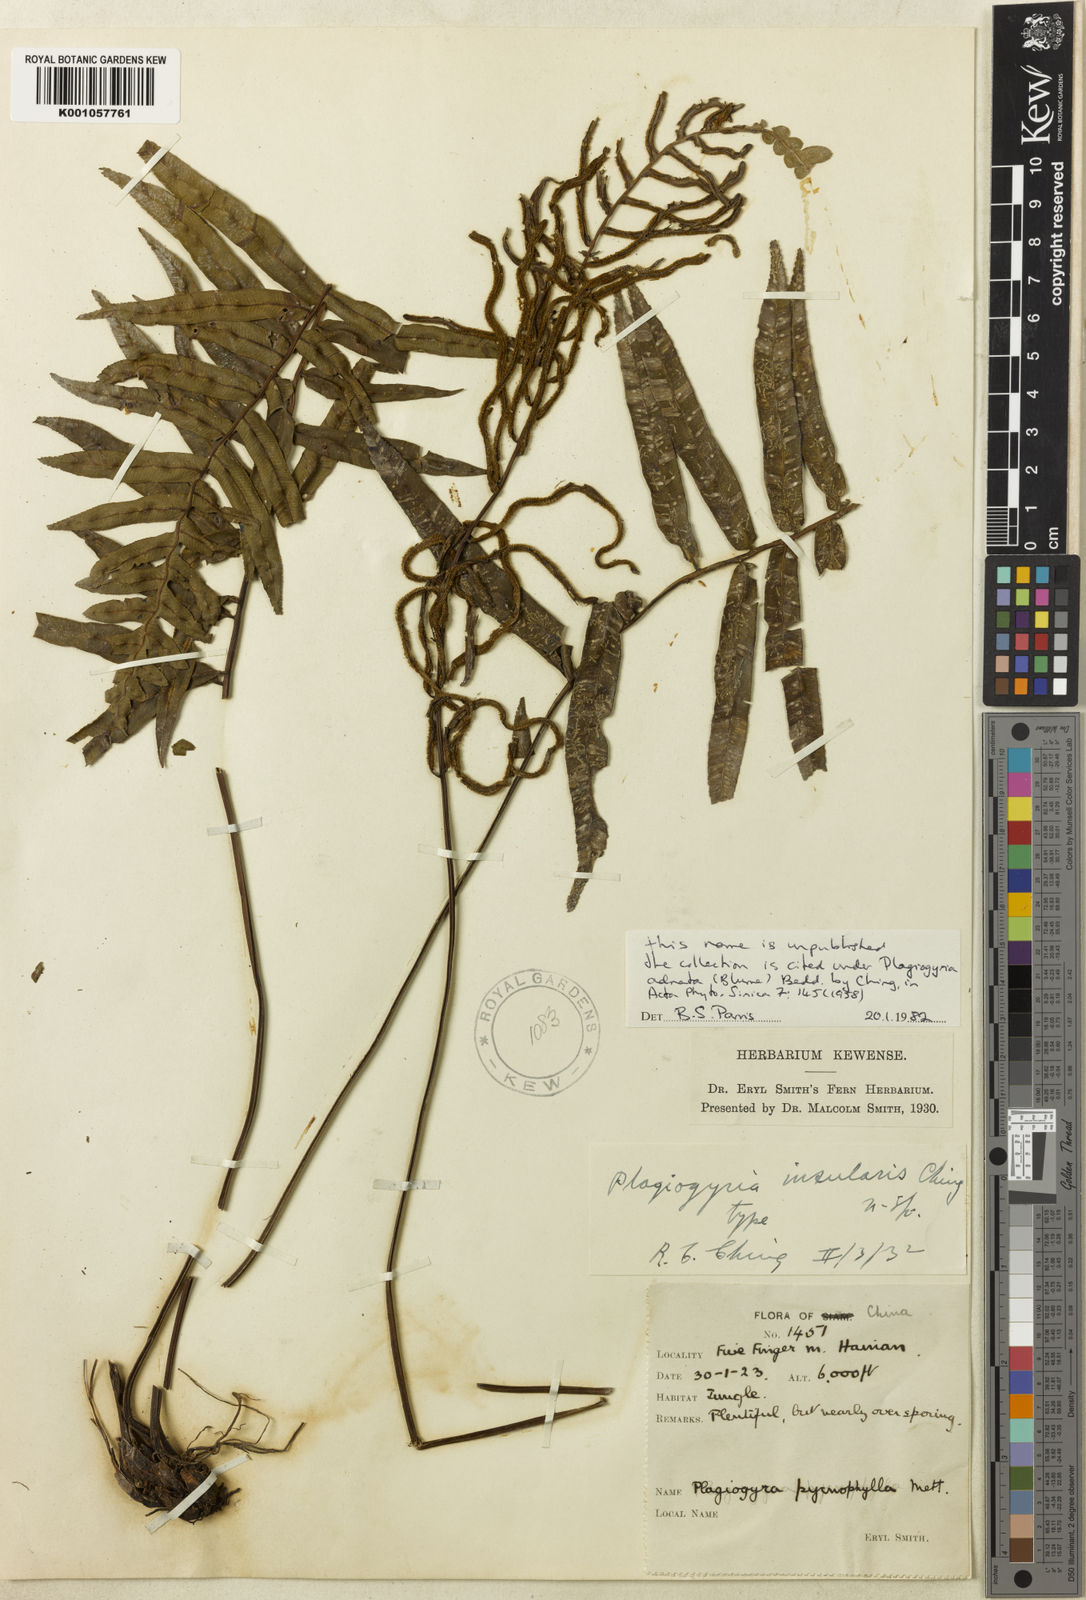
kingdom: Plantae
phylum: Tracheophyta
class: Polypodiopsida
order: Cyatheales
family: Plagiogyriaceae
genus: Plagiogyria
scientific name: Plagiogyria japonica
